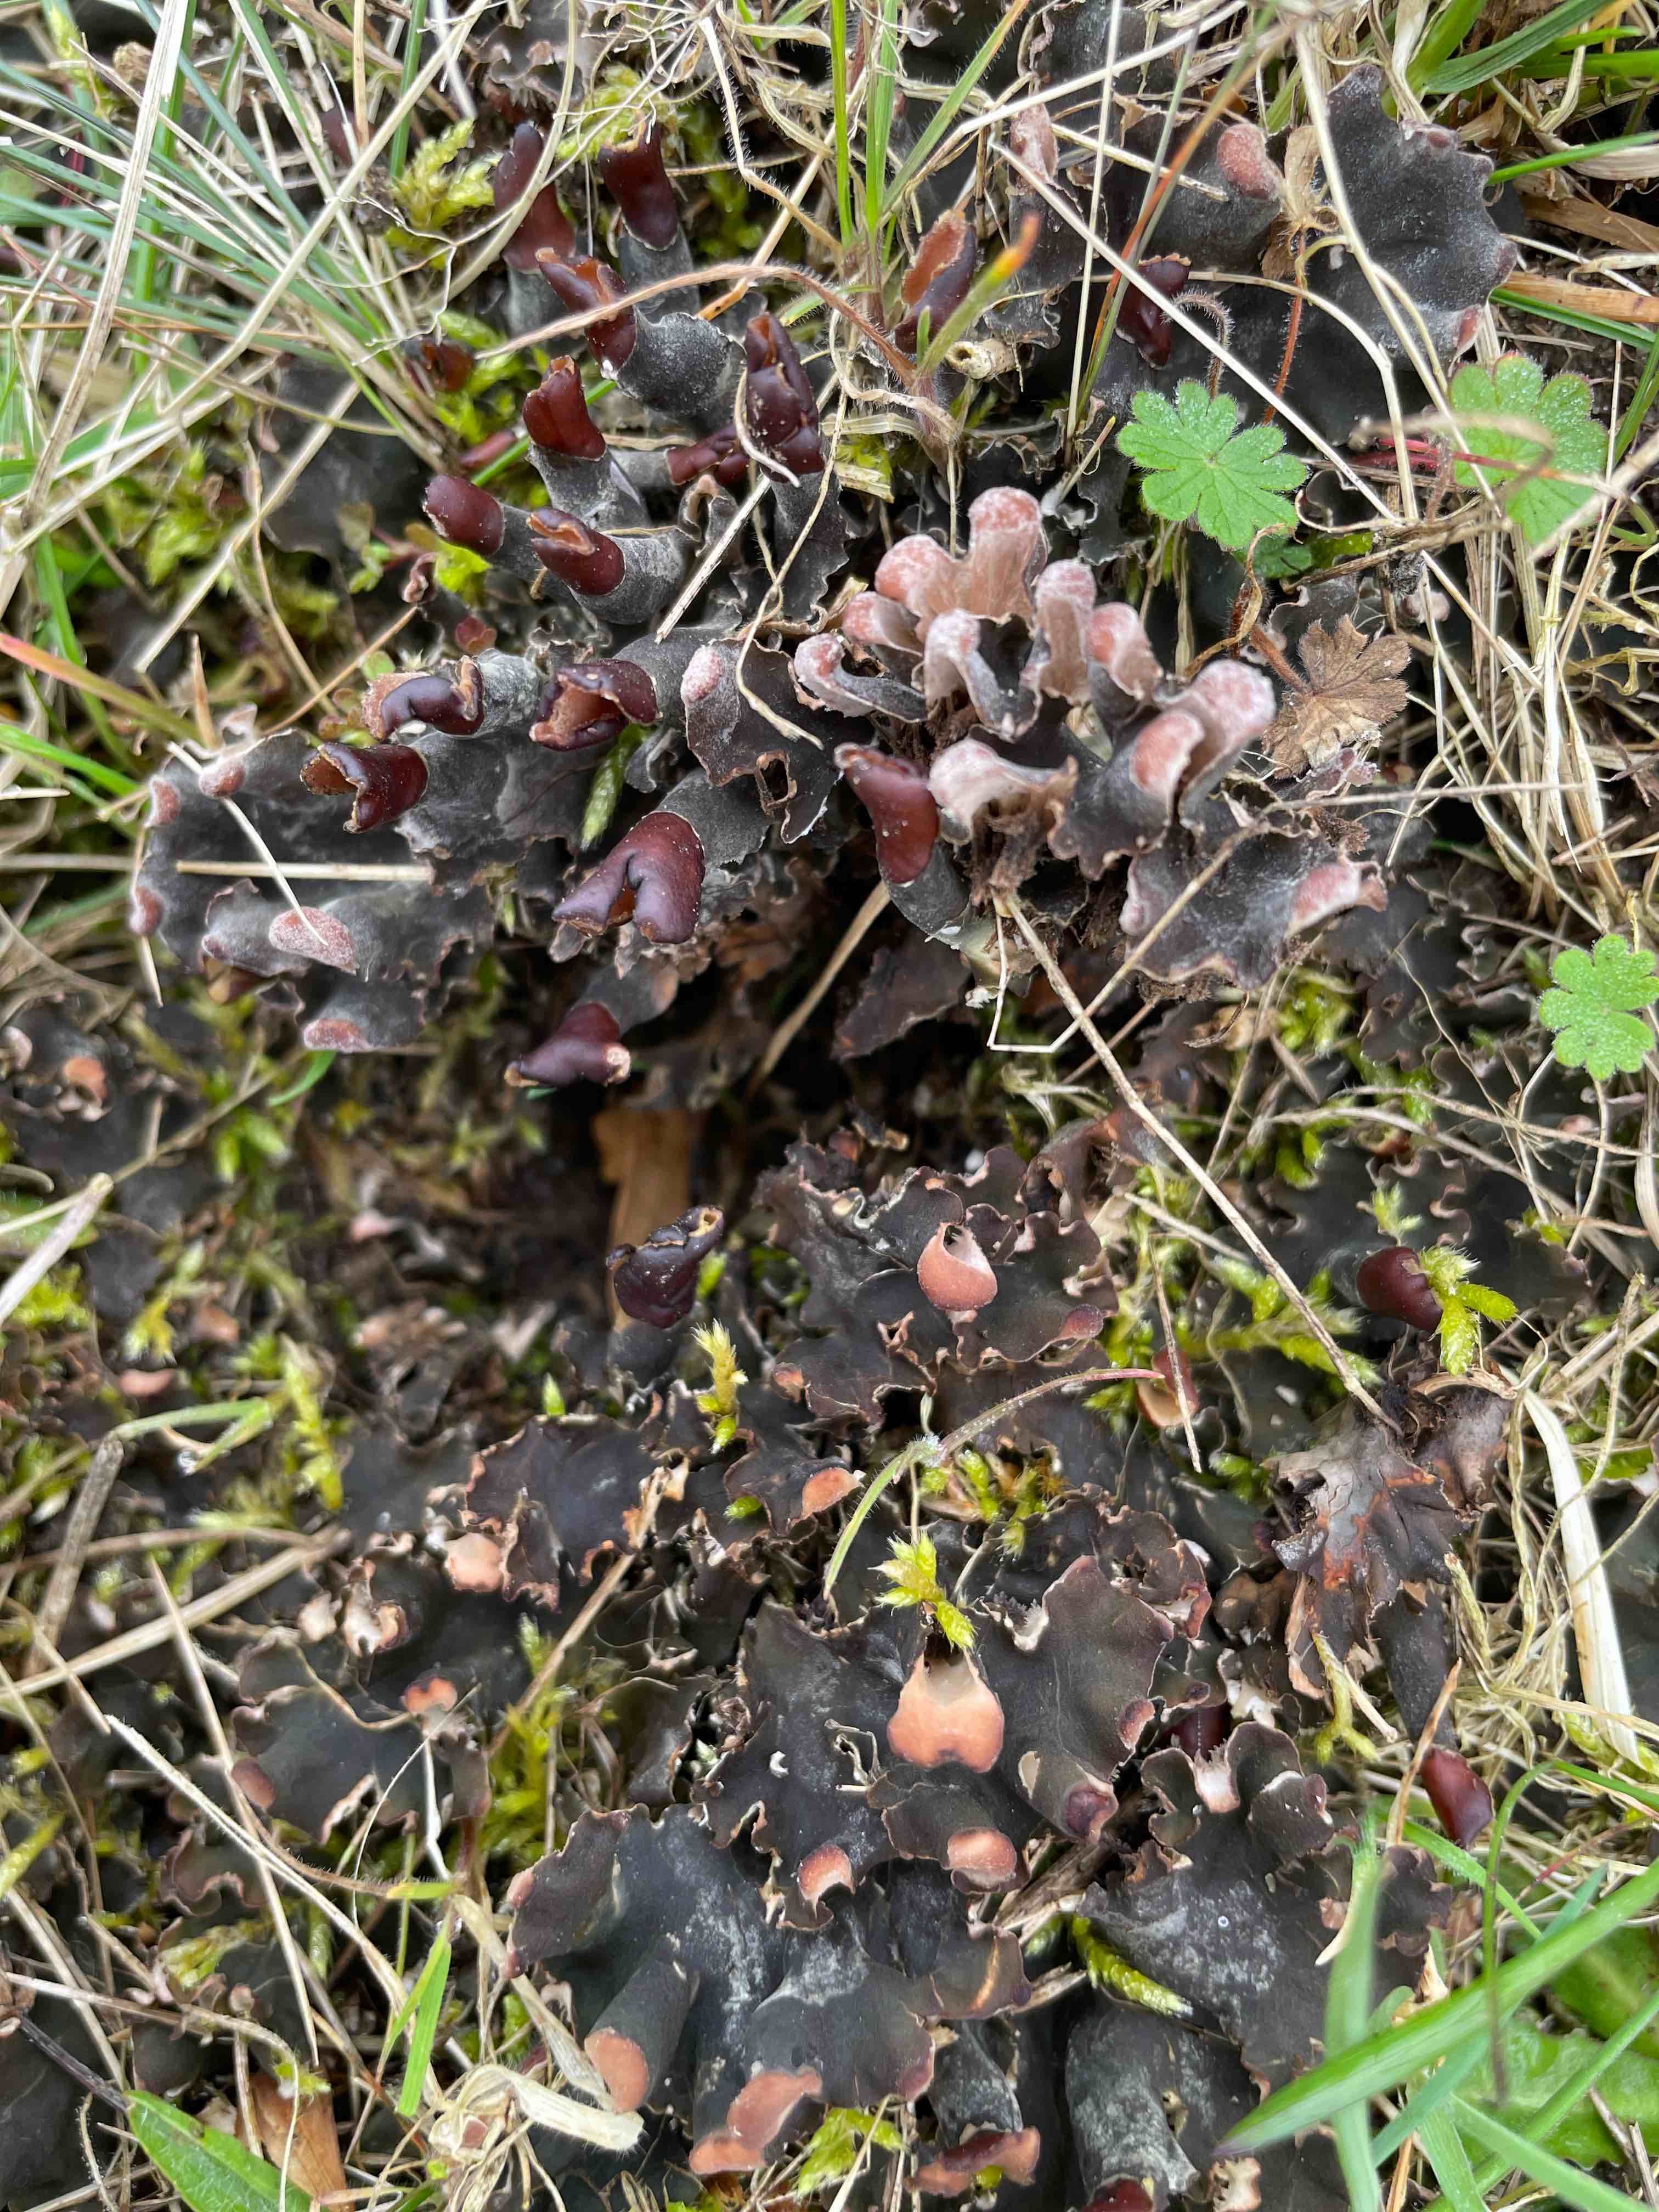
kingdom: Fungi
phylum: Ascomycota
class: Lecanoromycetes
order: Peltigerales
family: Peltigeraceae
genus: Peltigera
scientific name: Peltigera didactyla
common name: liden skjoldlav
